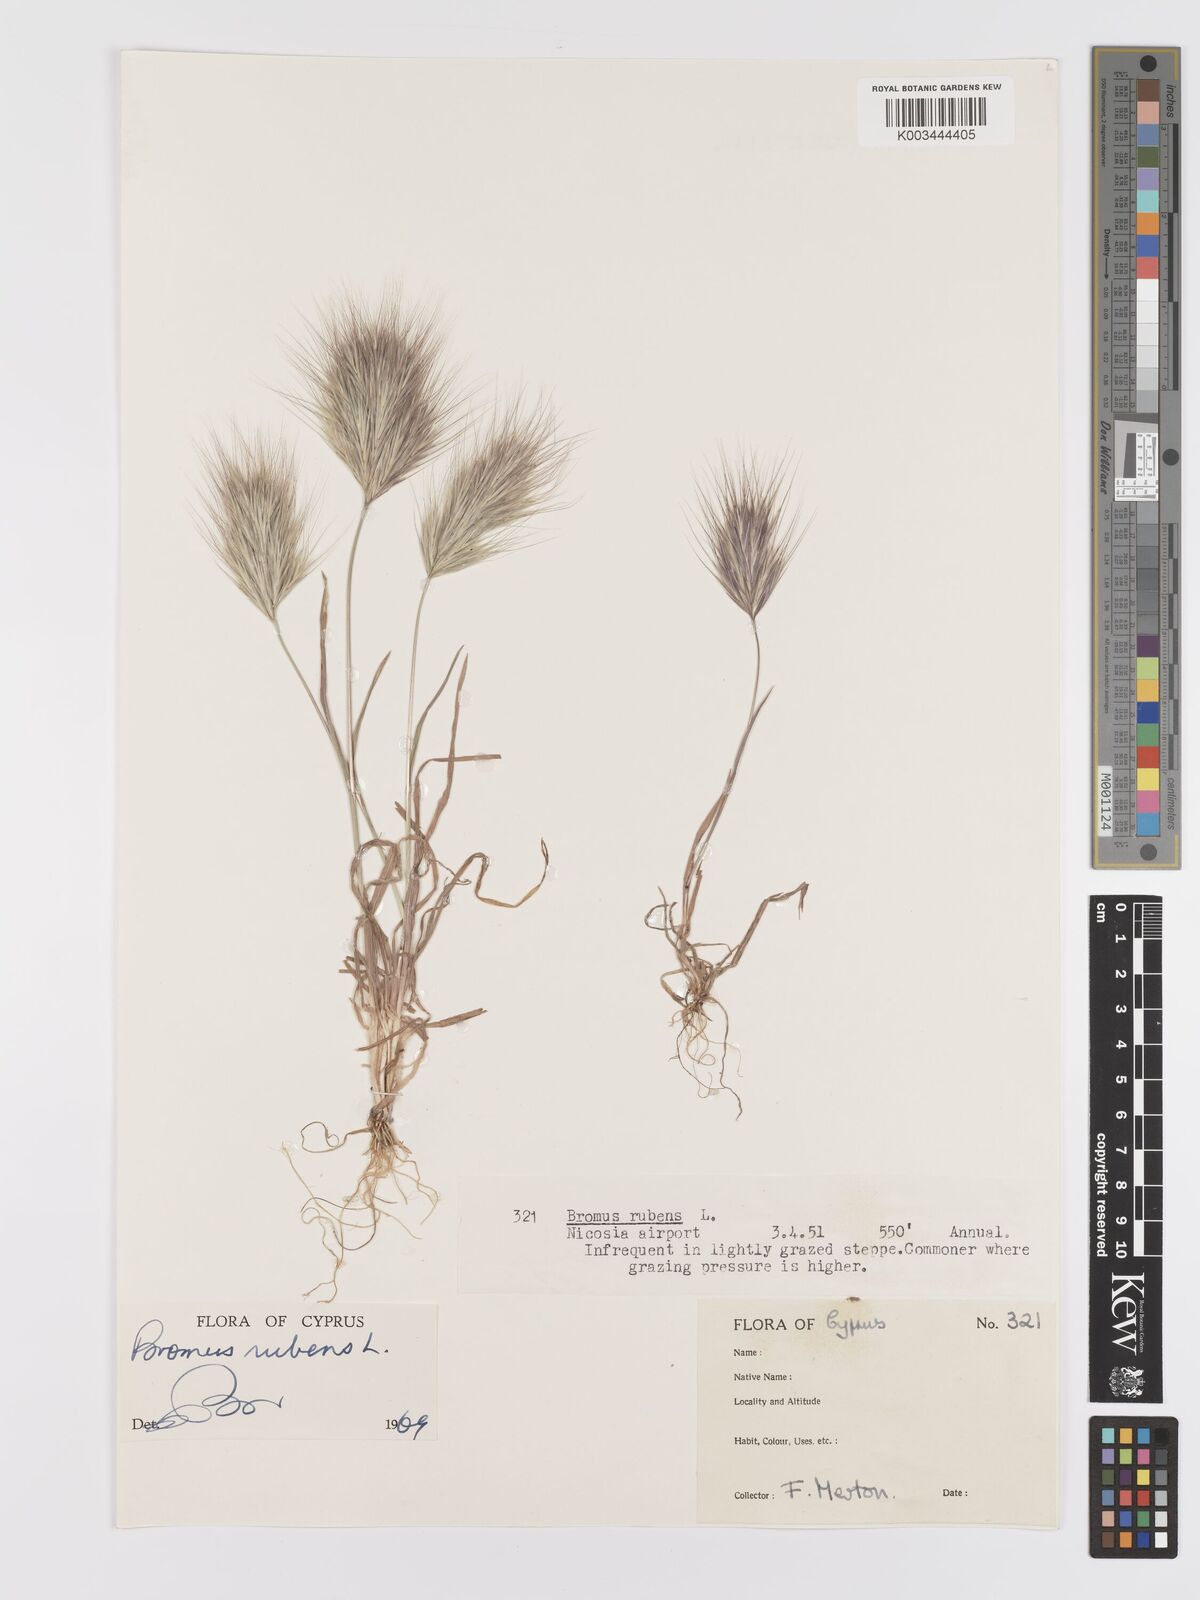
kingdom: Plantae
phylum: Tracheophyta
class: Liliopsida
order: Poales
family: Poaceae
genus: Bromus
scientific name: Bromus rubens
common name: Red brome
